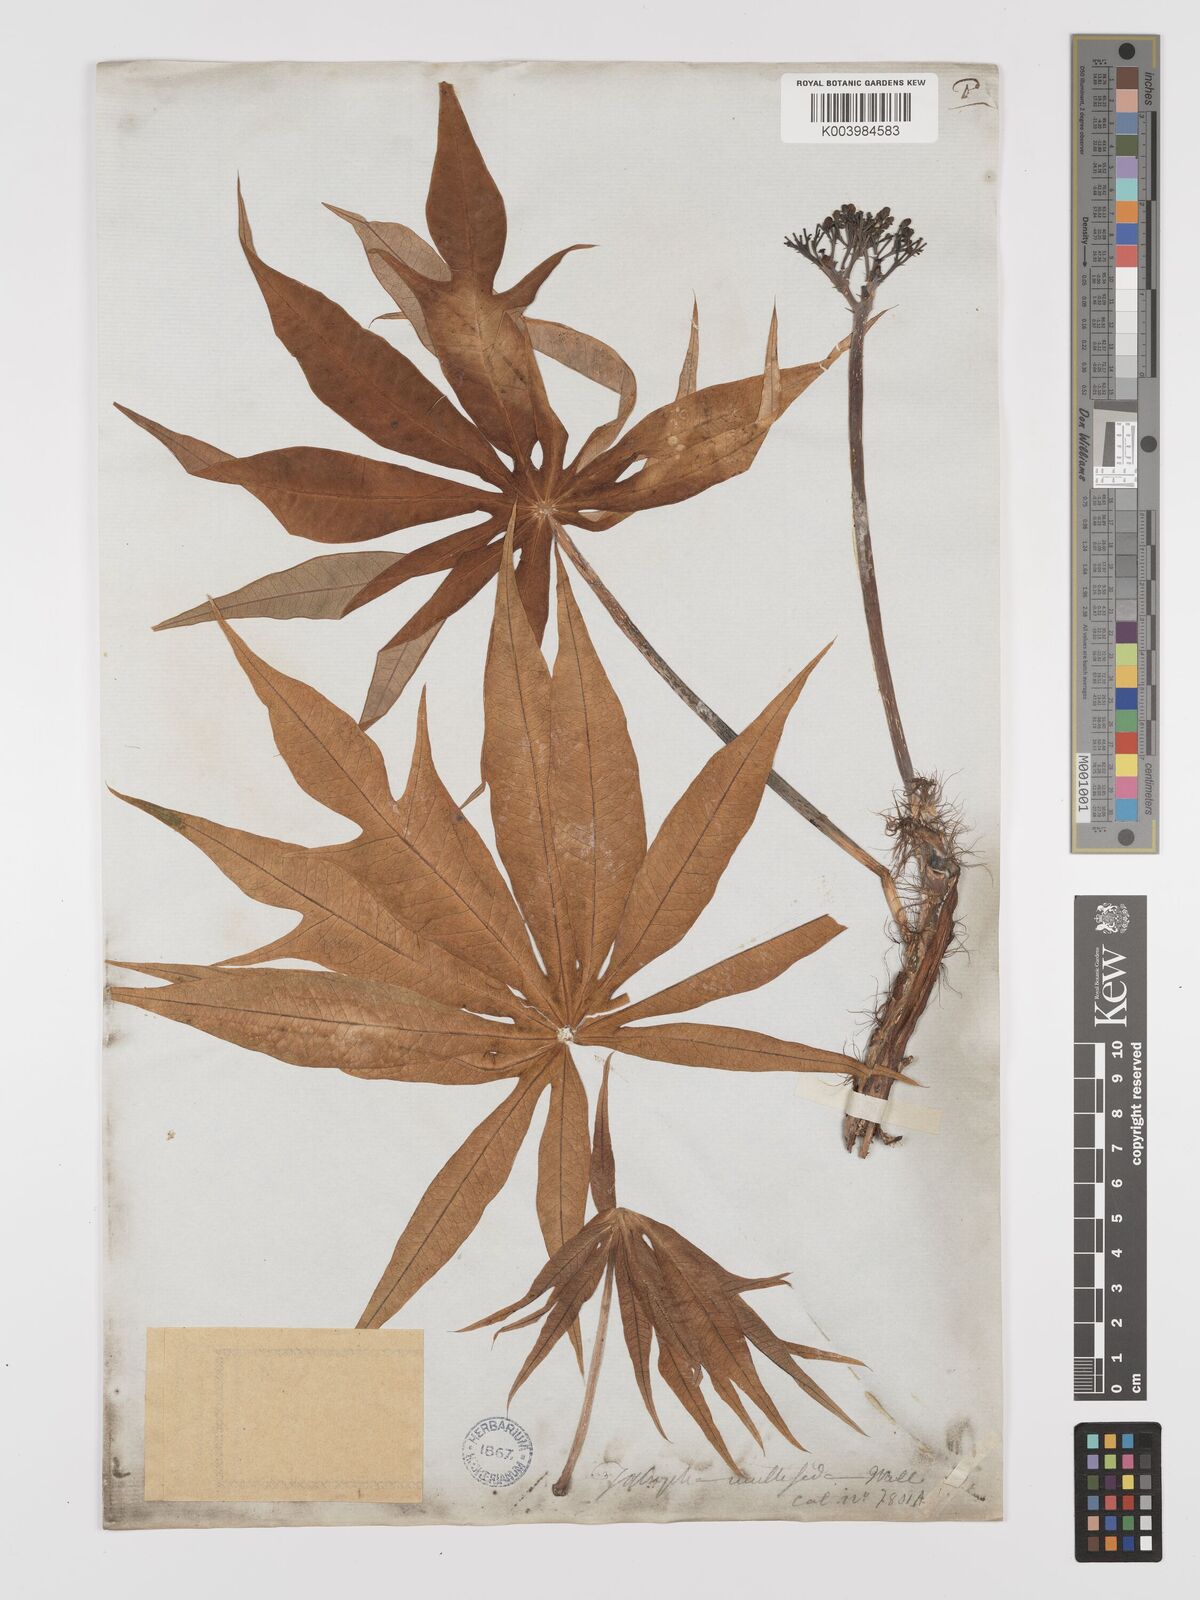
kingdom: Plantae
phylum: Tracheophyta
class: Magnoliopsida
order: Malpighiales
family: Euphorbiaceae
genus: Jatropha
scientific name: Jatropha multifida
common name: Coralbush
